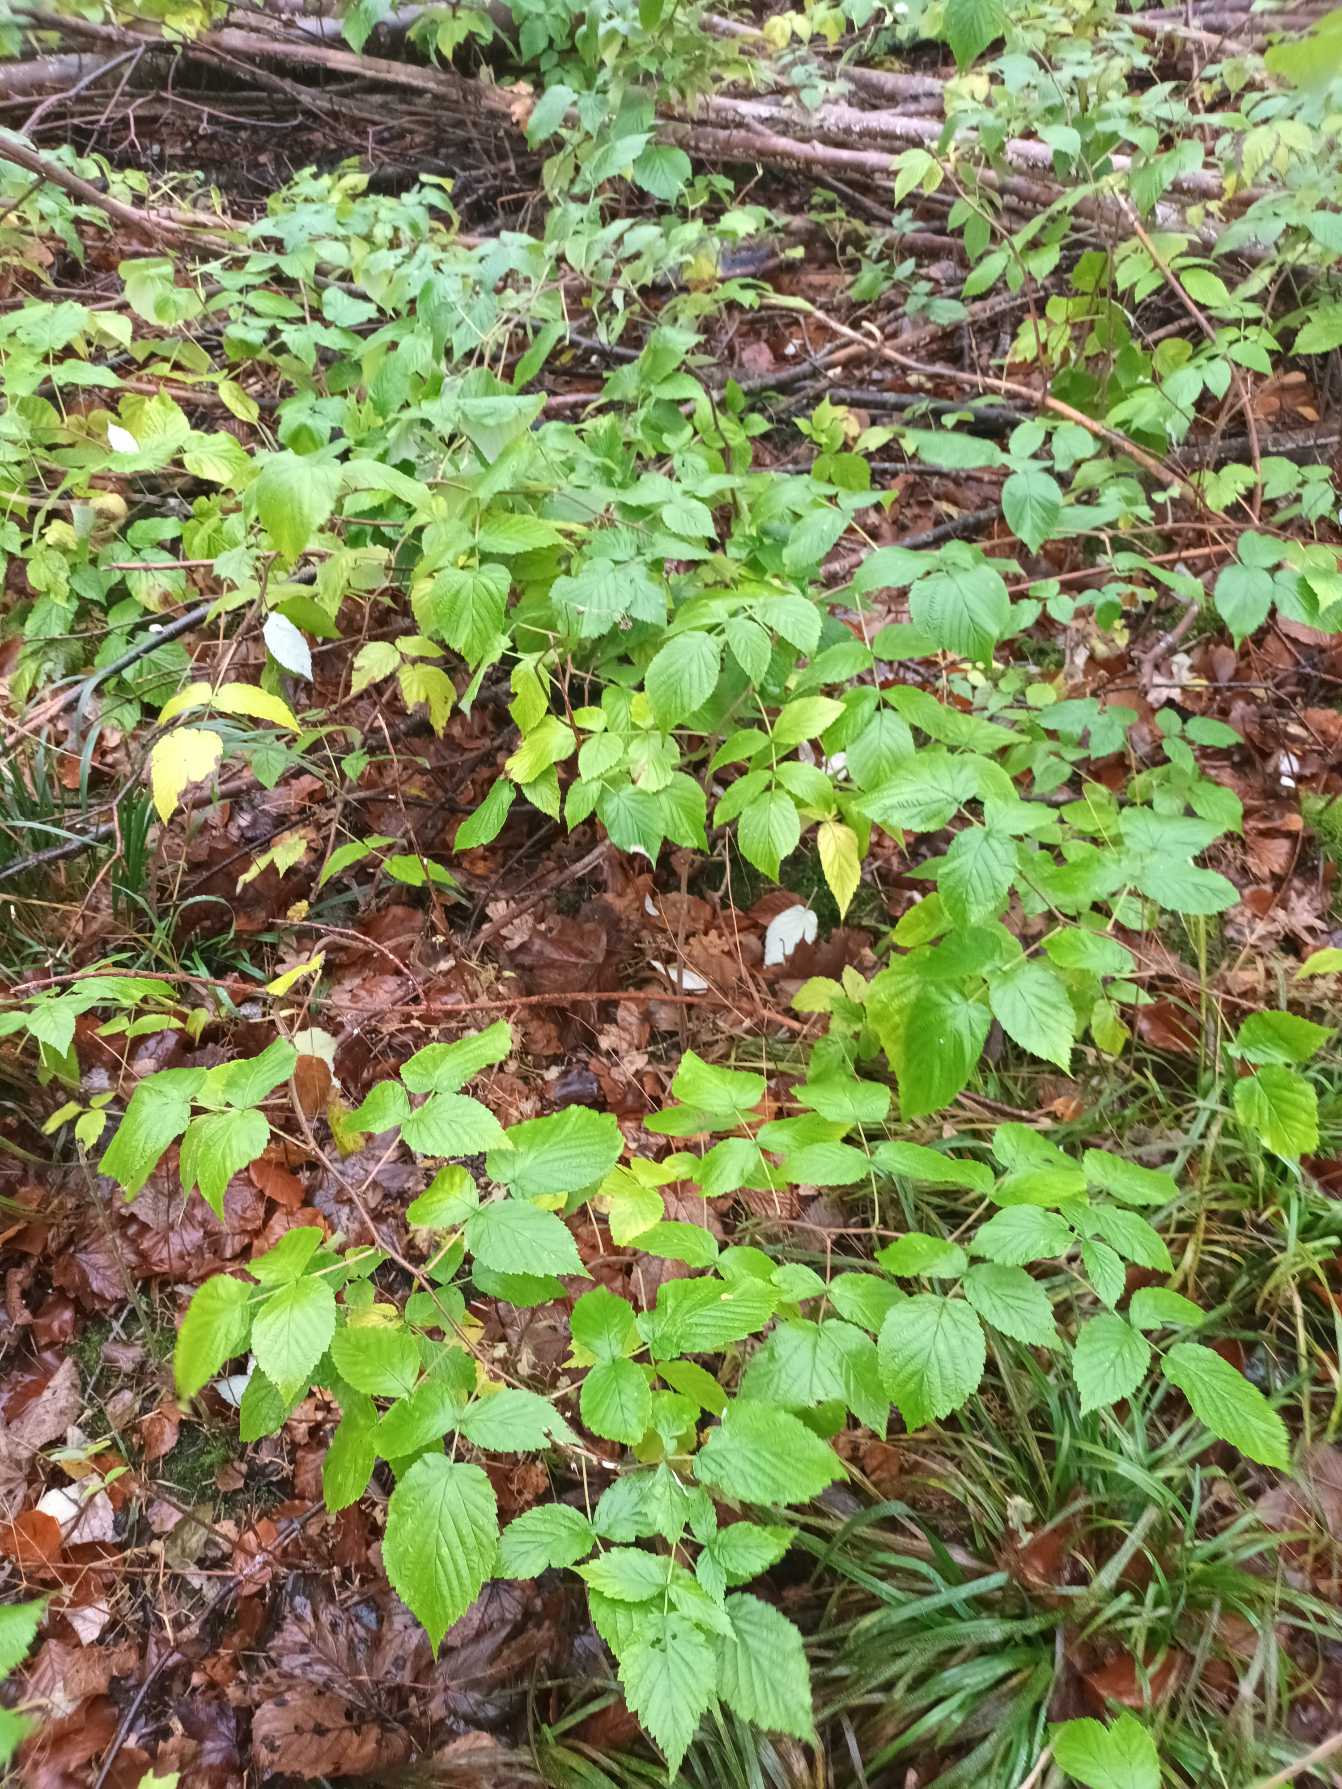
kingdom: Plantae
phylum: Tracheophyta
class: Magnoliopsida
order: Rosales
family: Rosaceae
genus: Rubus
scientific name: Rubus idaeus
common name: Hindbær
